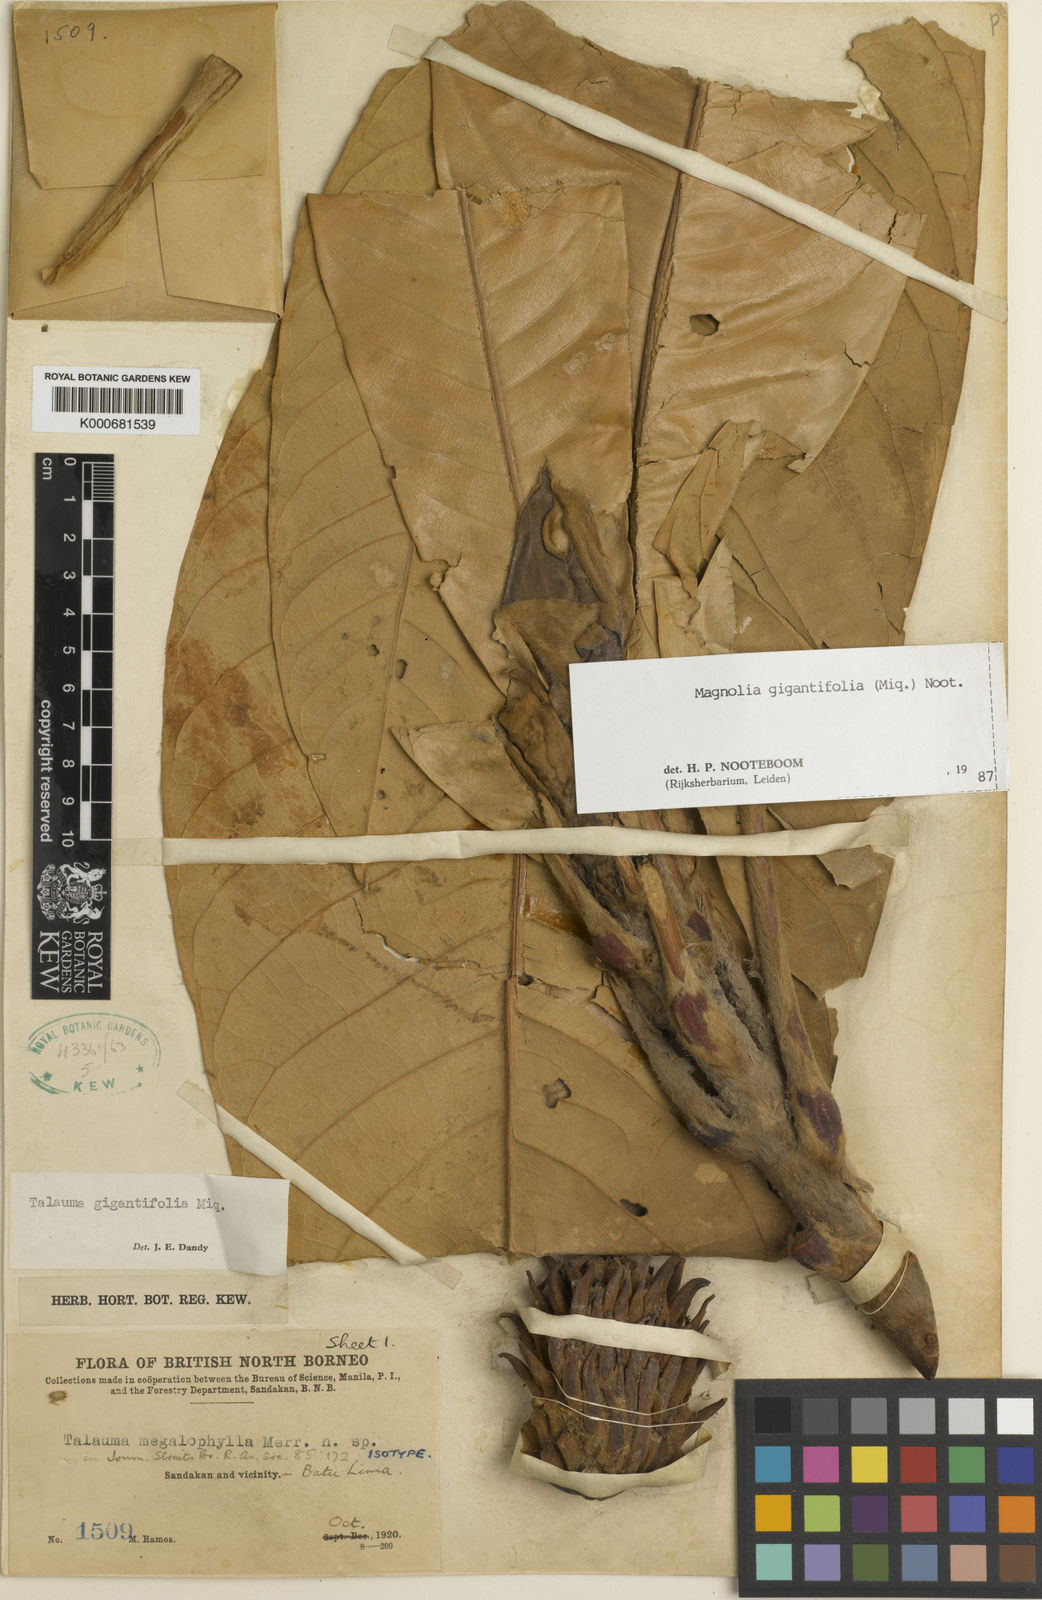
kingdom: Plantae
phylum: Tracheophyta
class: Magnoliopsida
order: Magnoliales
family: Magnoliaceae
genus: Magnolia
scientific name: Magnolia gigantifolia
